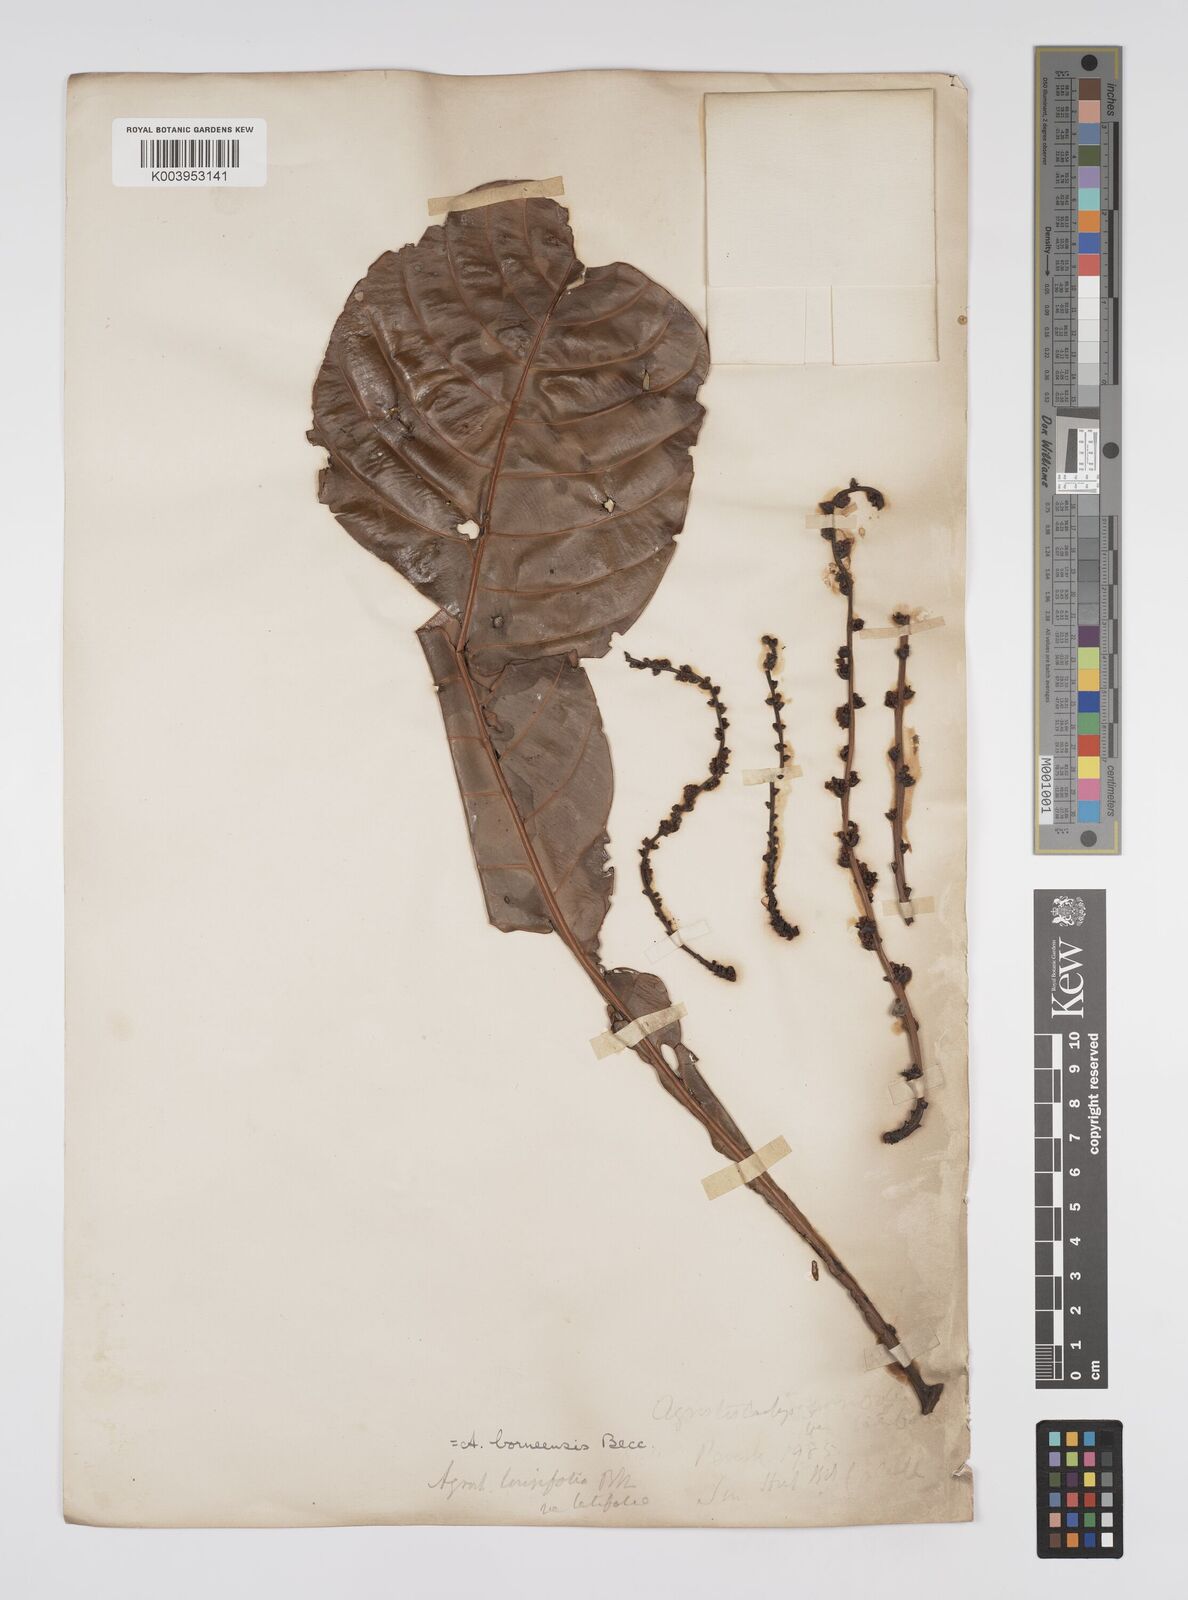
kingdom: Plantae
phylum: Tracheophyta
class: Magnoliopsida
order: Malpighiales
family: Euphorbiaceae
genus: Agrostistachys
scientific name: Agrostistachys borneensis
